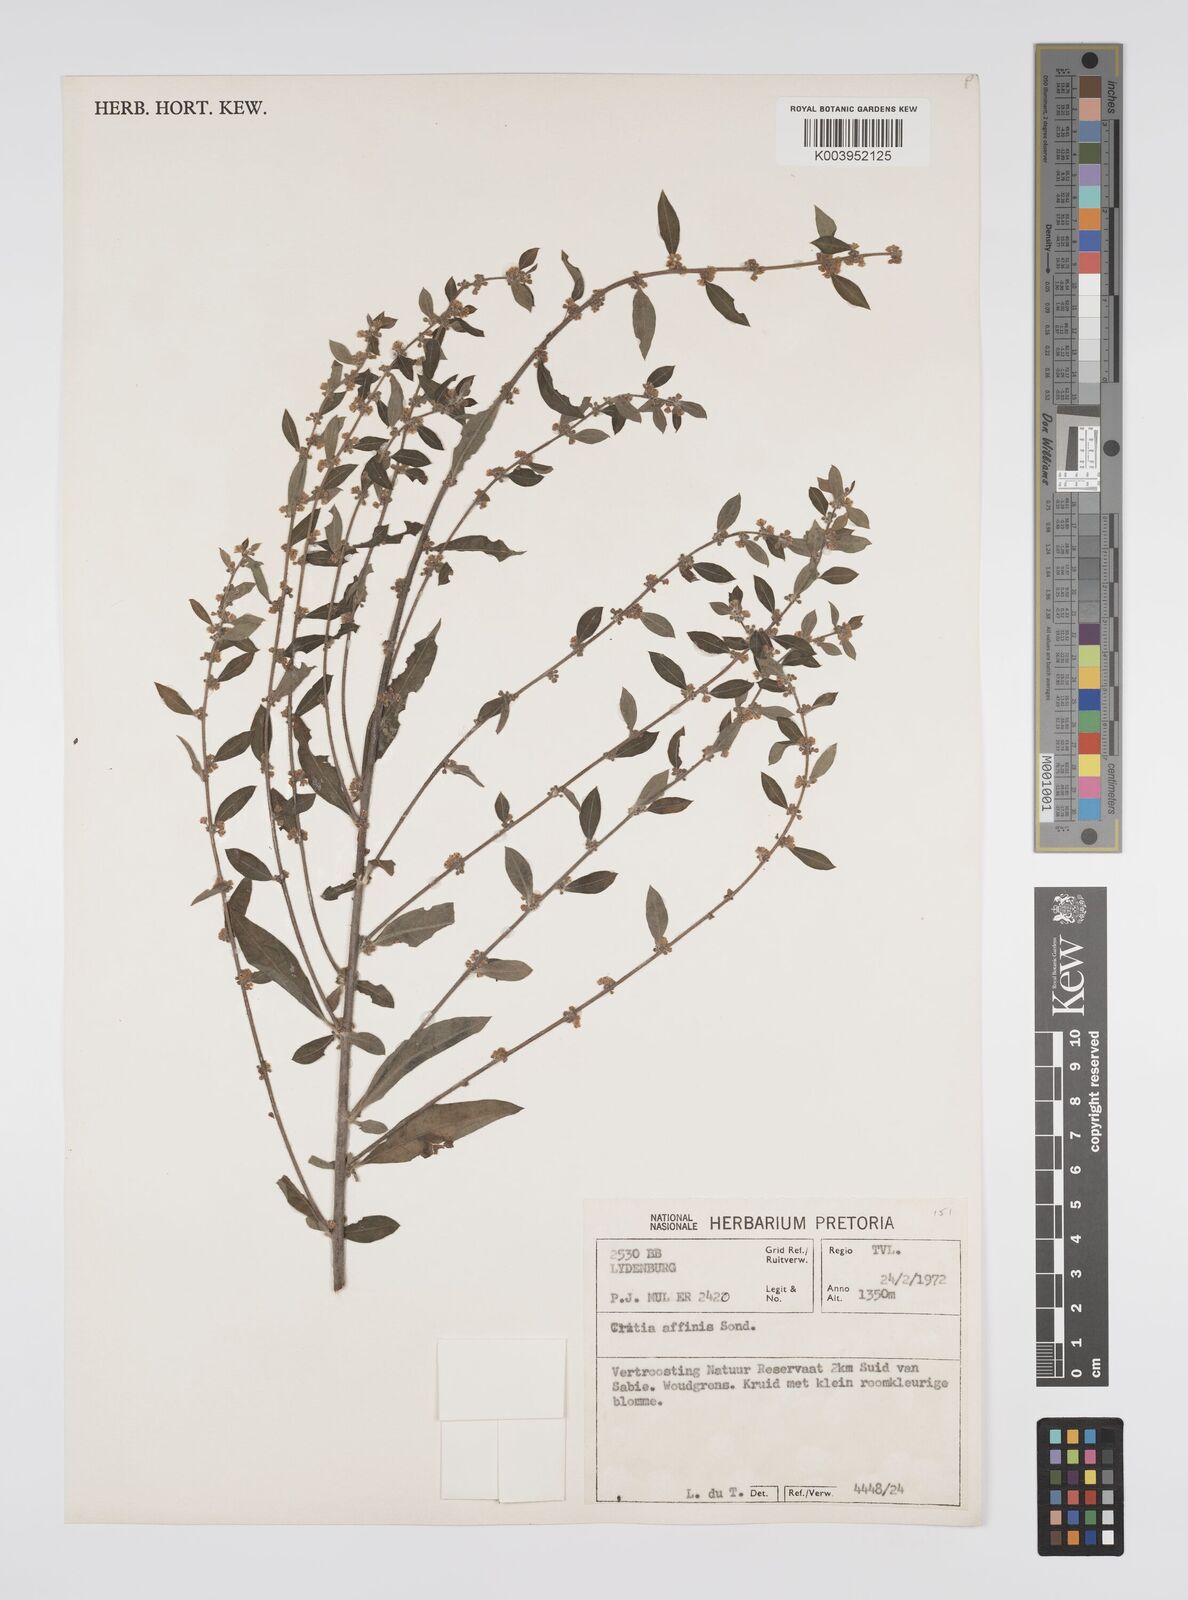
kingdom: Plantae
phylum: Tracheophyta
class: Magnoliopsida
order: Malpighiales
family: Peraceae
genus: Clutia
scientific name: Clutia affinis
